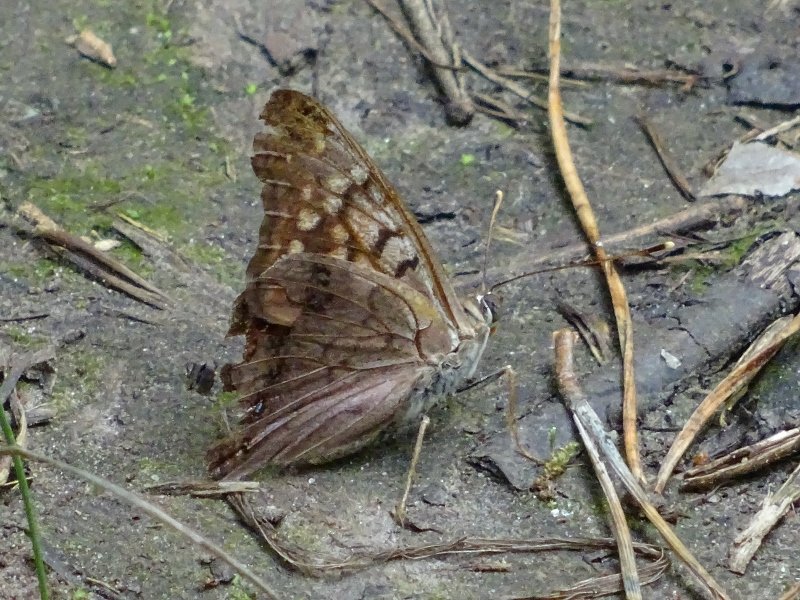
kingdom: Animalia
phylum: Arthropoda
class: Insecta
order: Lepidoptera
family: Nymphalidae
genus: Asterocampa
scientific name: Asterocampa clyton
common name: Tawny Emperor
